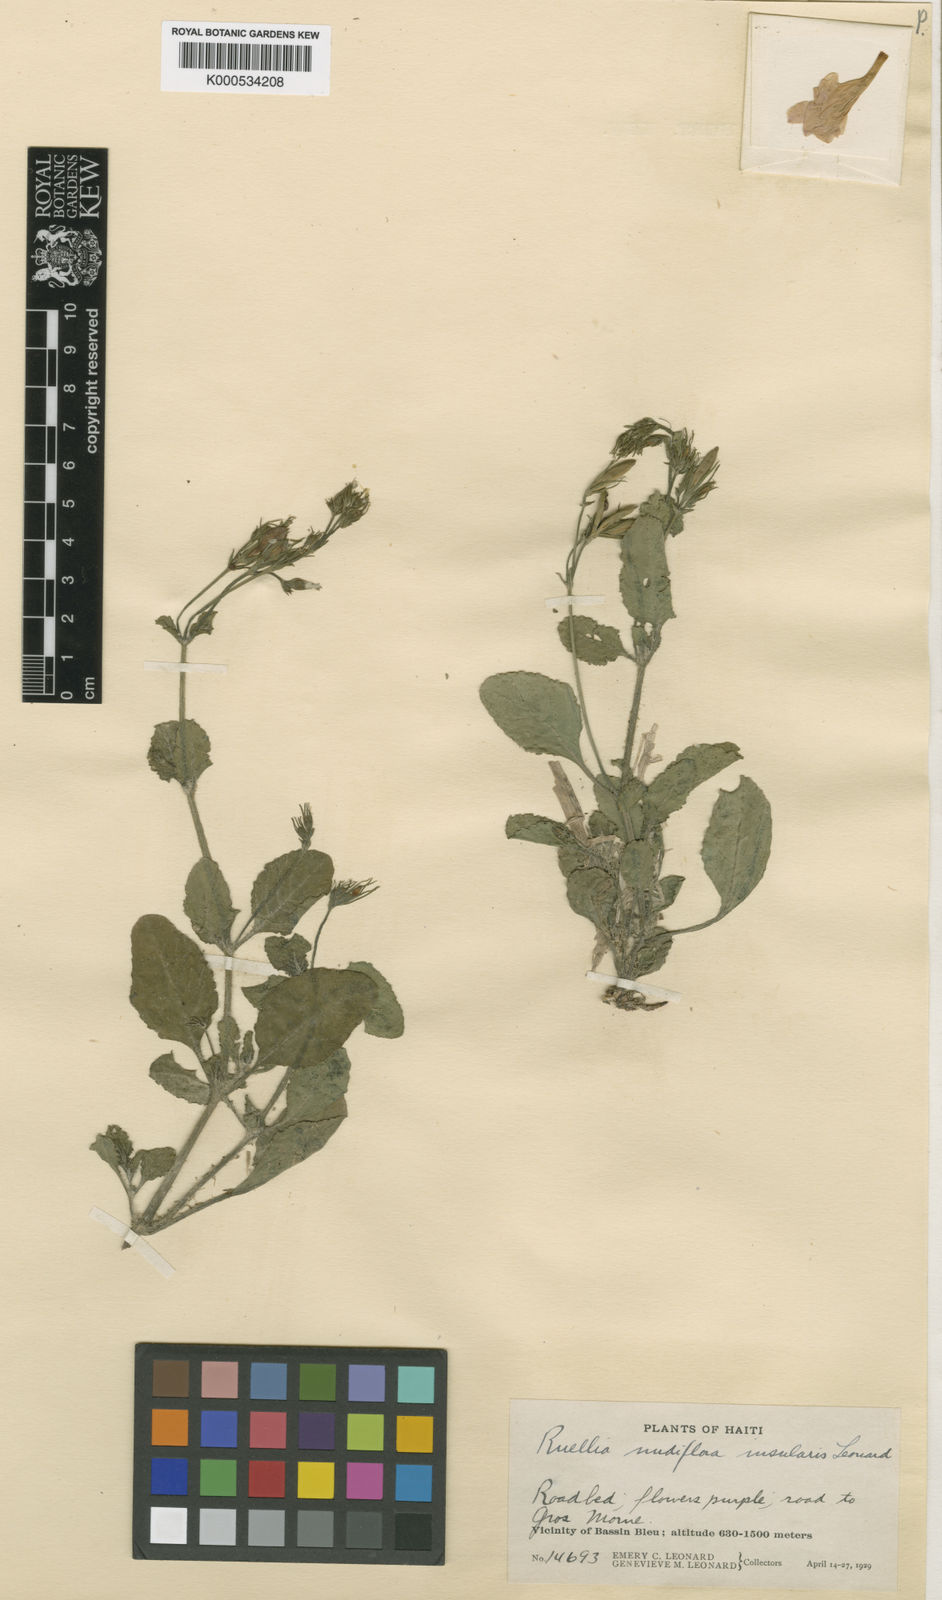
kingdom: Plantae
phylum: Tracheophyta
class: Magnoliopsida
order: Lamiales
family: Acanthaceae
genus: Ruellia
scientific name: Ruellia ciliatiflora
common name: Hairyflower wild petunia
